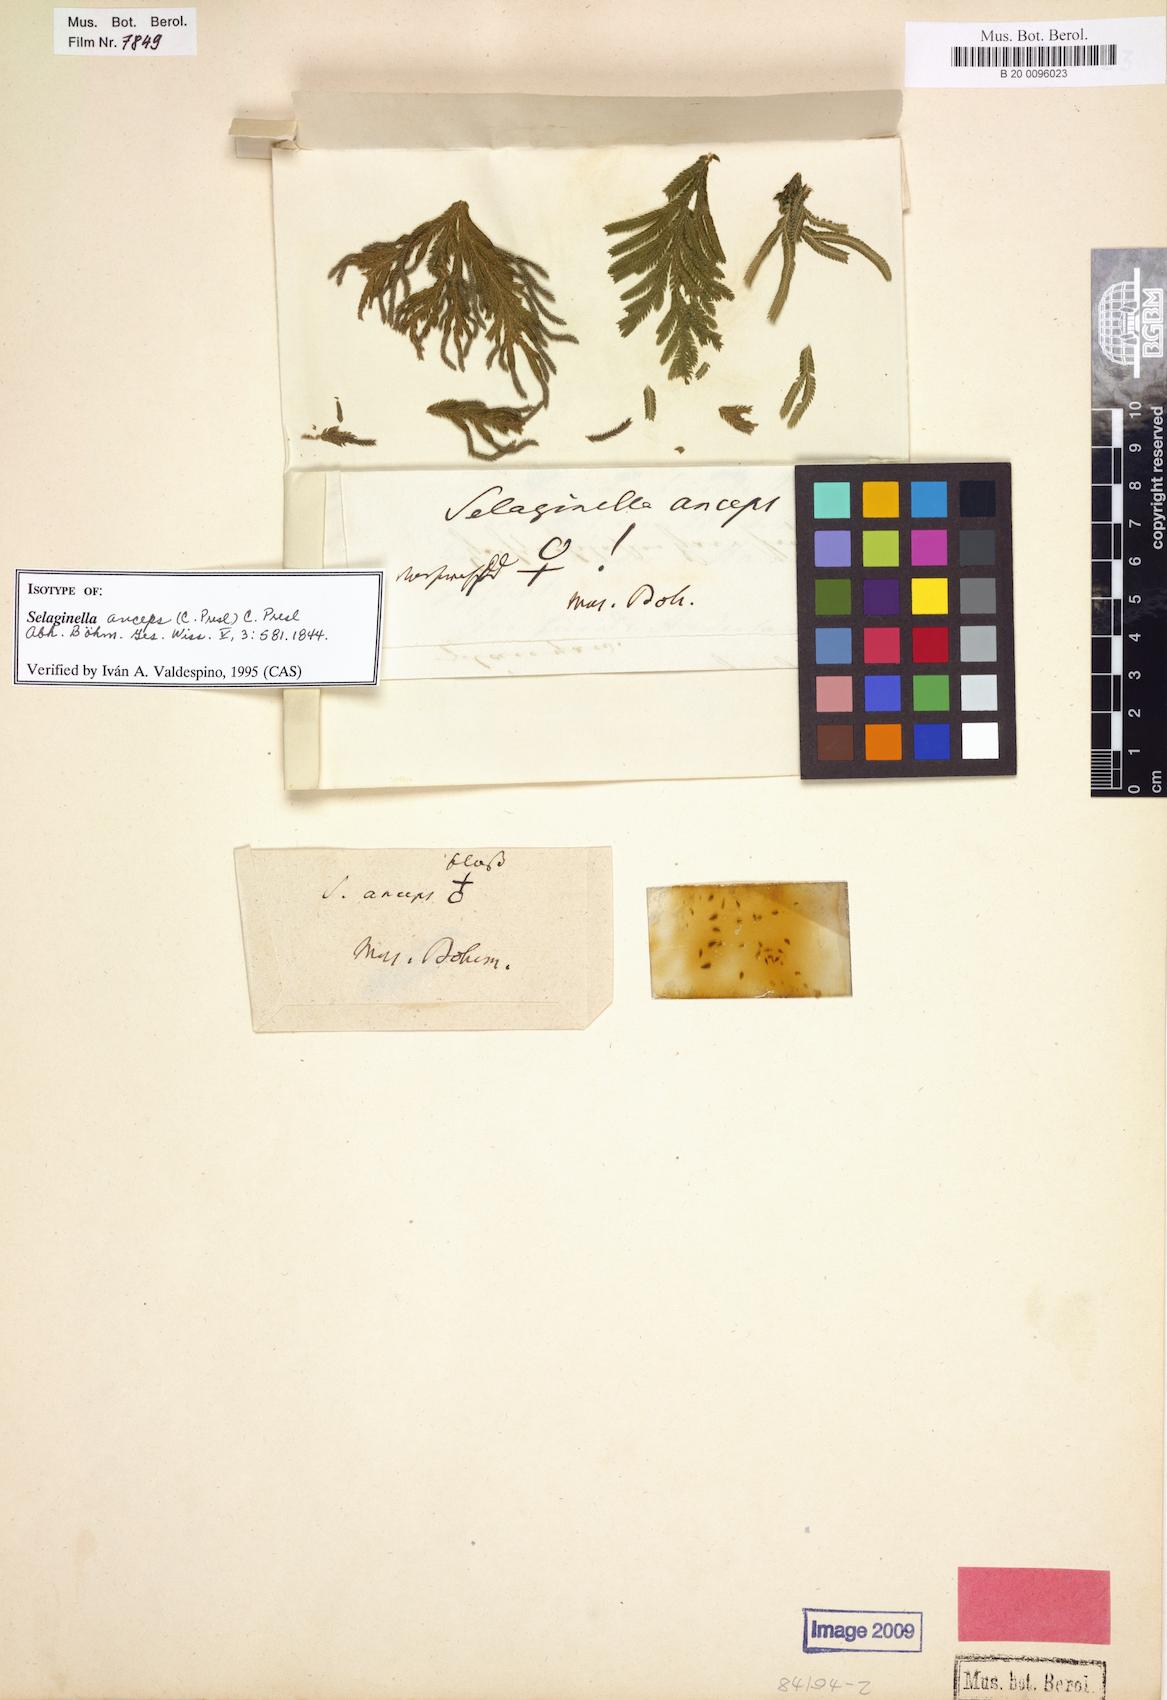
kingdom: Plantae
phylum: Tracheophyta
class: Lycopodiopsida
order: Selaginellales
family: Selaginellaceae
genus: Selaginella
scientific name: Selaginella anceps
